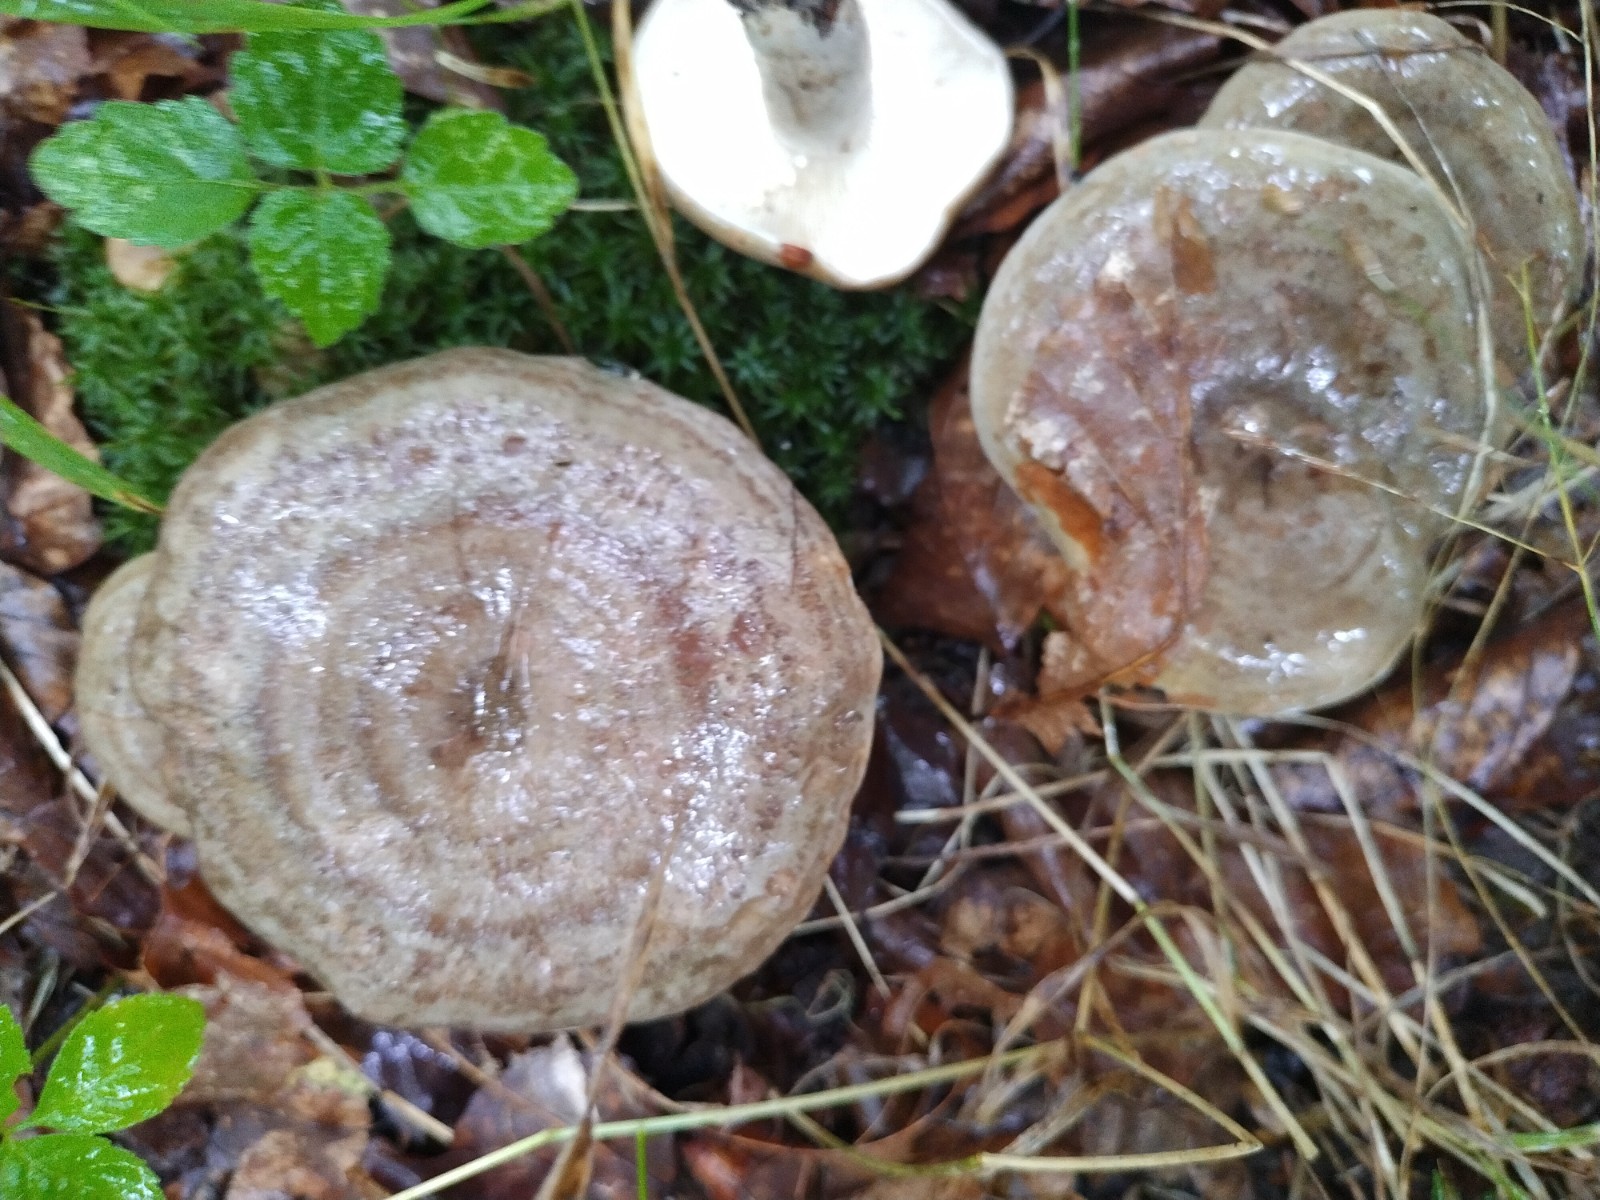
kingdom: Fungi
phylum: Basidiomycota
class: Agaricomycetes
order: Russulales
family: Russulaceae
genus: Lactarius
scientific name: Lactarius circellatus
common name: avnbøg-mælkehat
